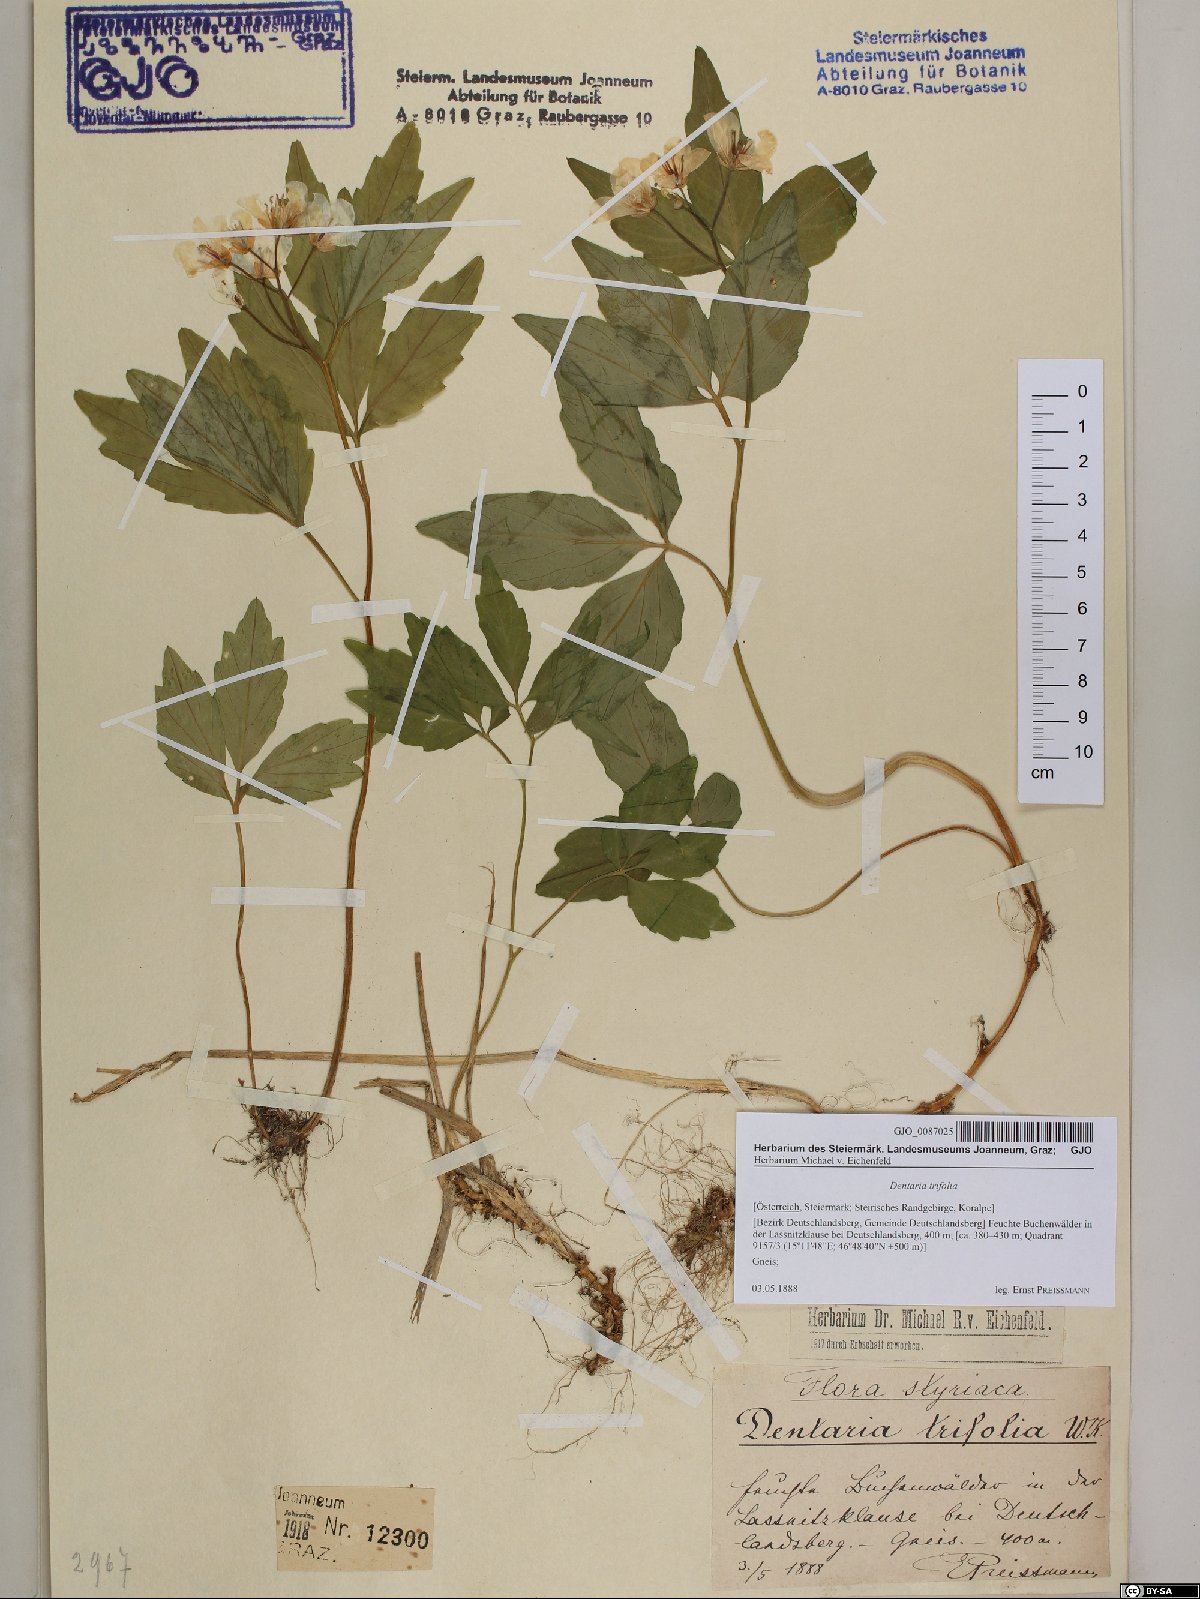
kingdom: Plantae
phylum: Tracheophyta
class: Magnoliopsida
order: Brassicales
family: Brassicaceae
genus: Cardamine
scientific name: Cardamine waldsteinii
